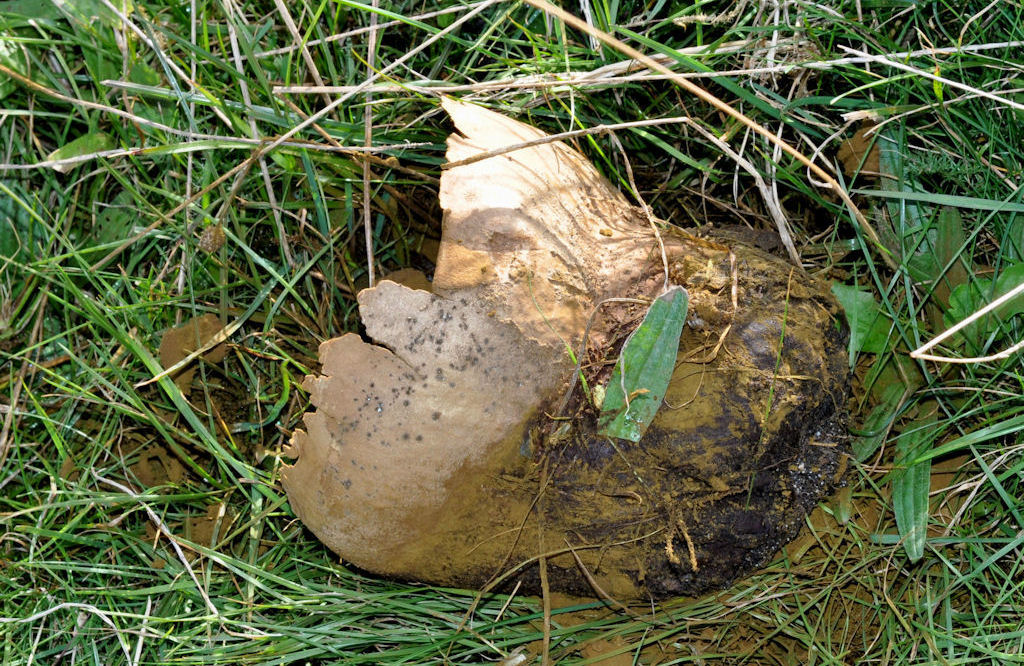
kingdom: Fungi
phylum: Basidiomycota
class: Agaricomycetes
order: Agaricales
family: Lycoperdaceae
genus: Bovistella
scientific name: Bovistella utriformis
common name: skællet støvbold
